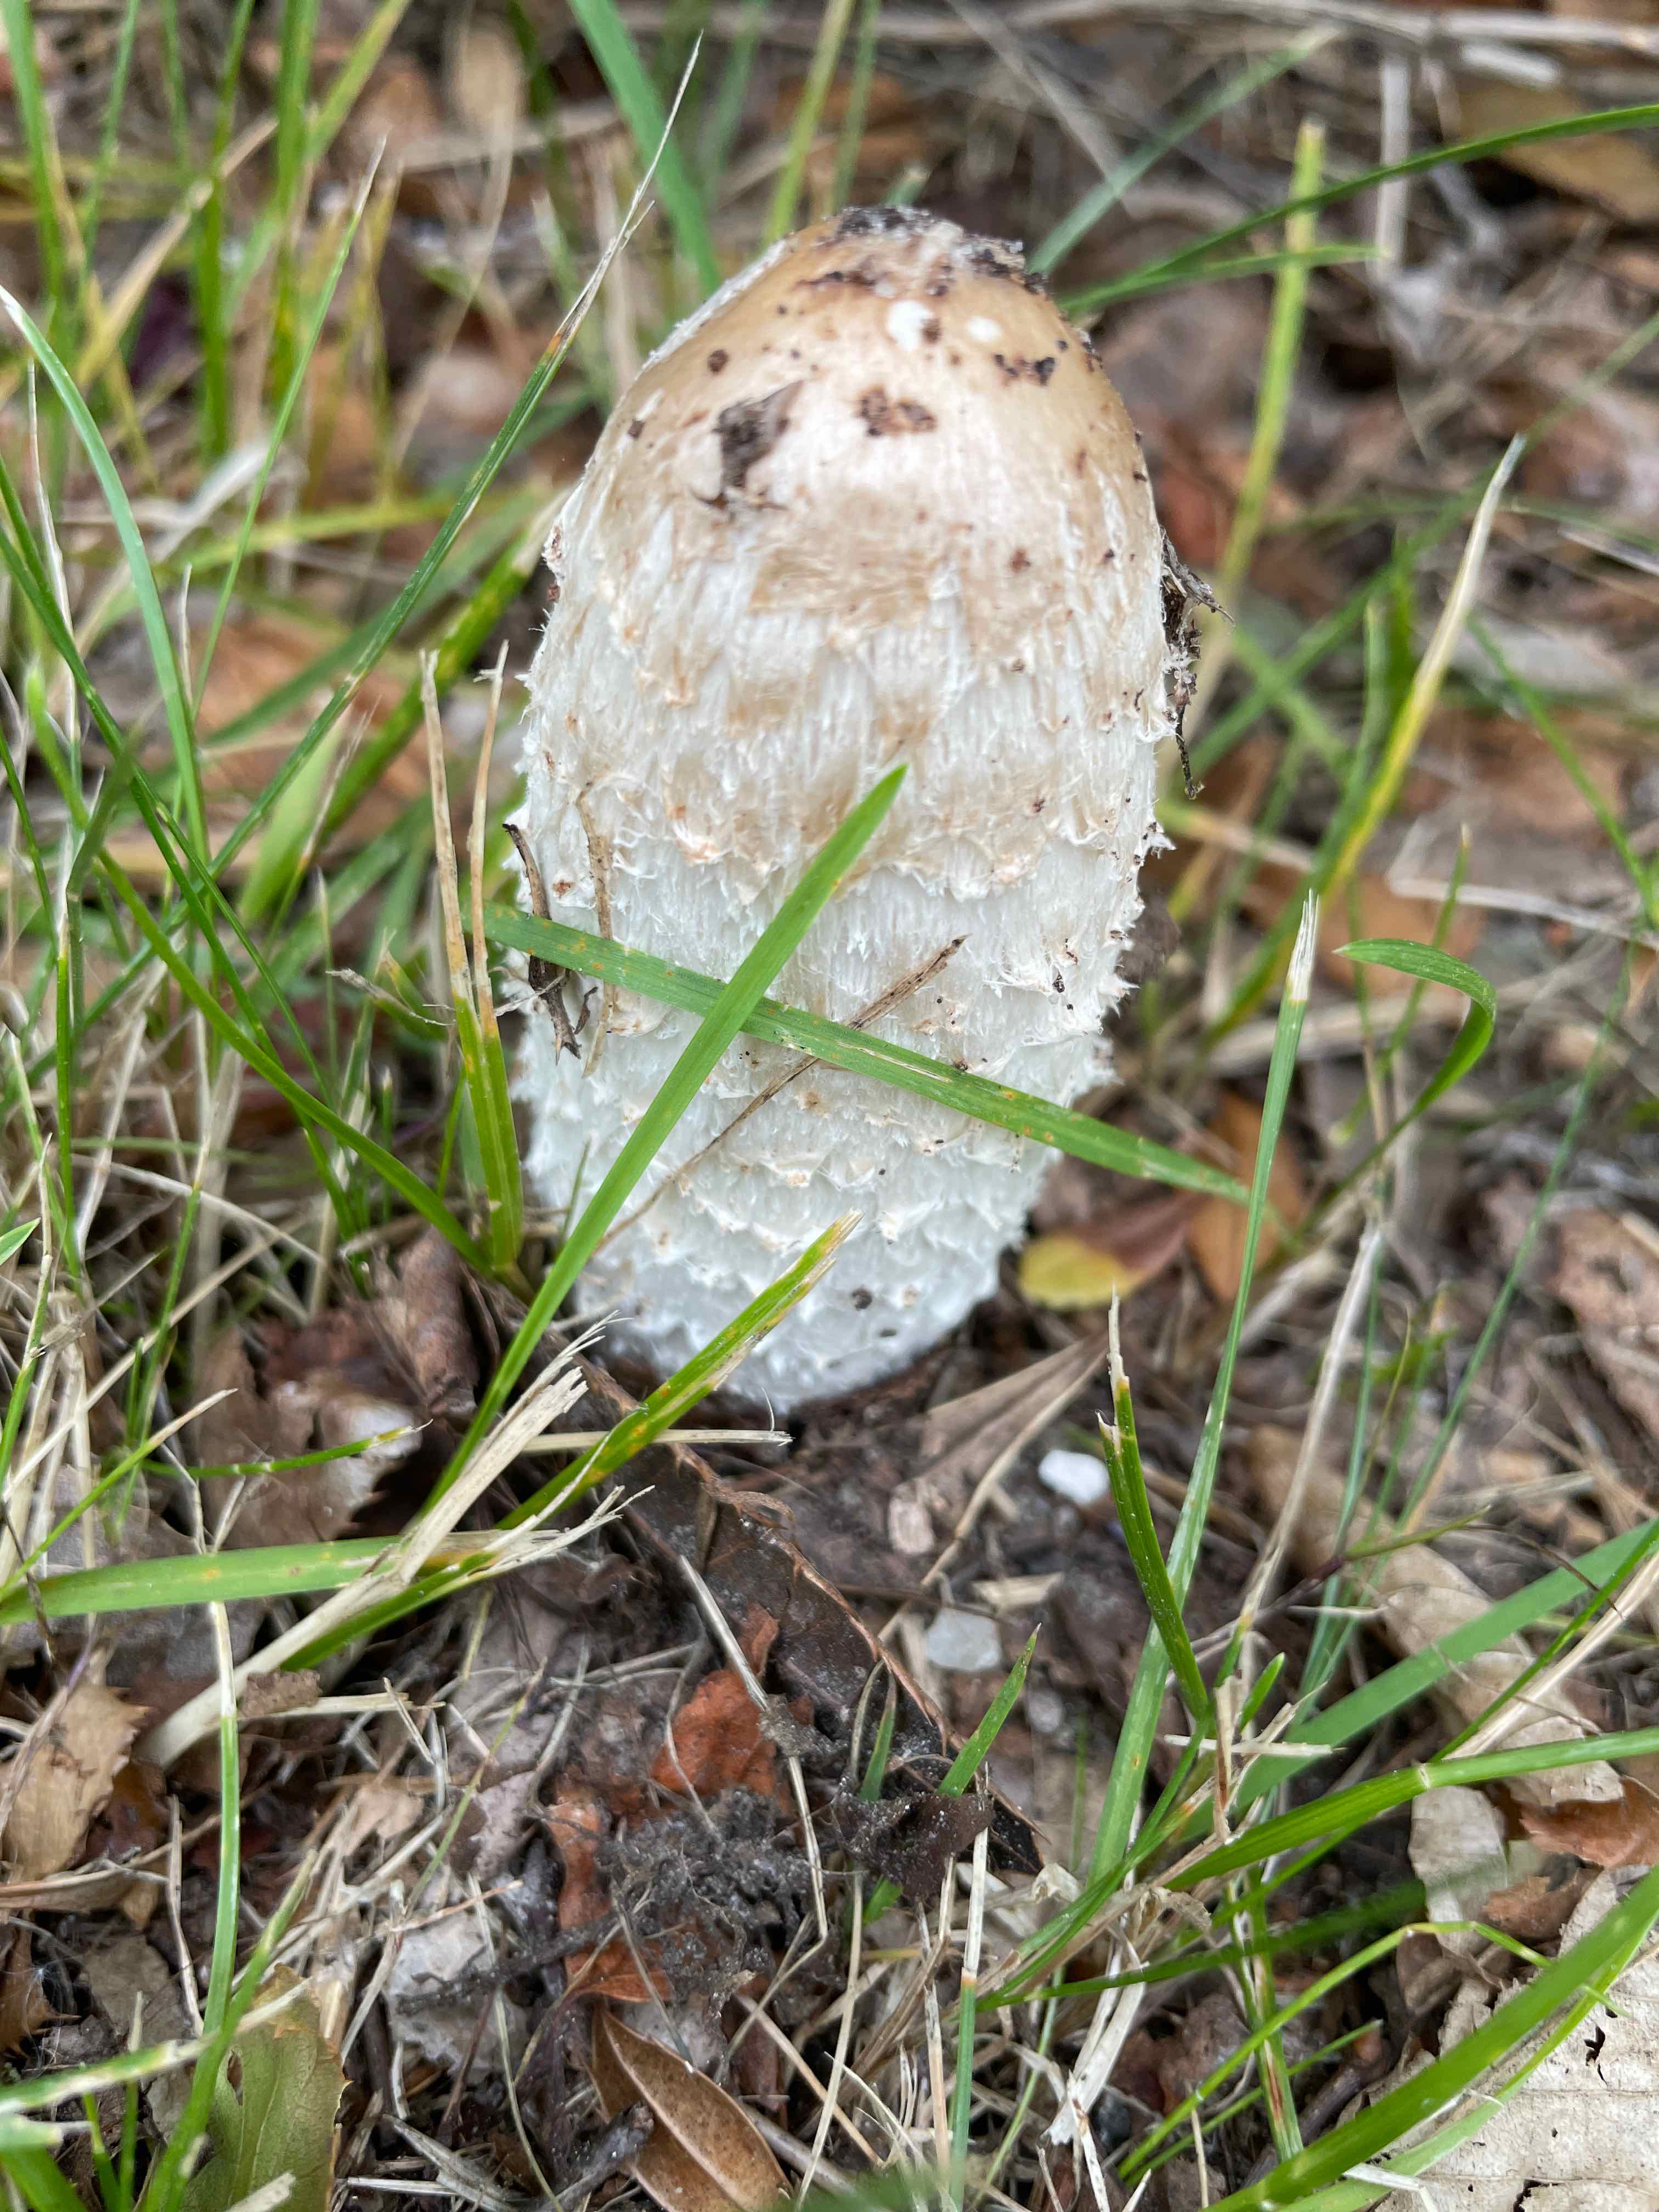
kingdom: Fungi
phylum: Basidiomycota
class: Agaricomycetes
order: Agaricales
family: Agaricaceae
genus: Coprinus
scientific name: Coprinus comatus
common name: stor parykhat
